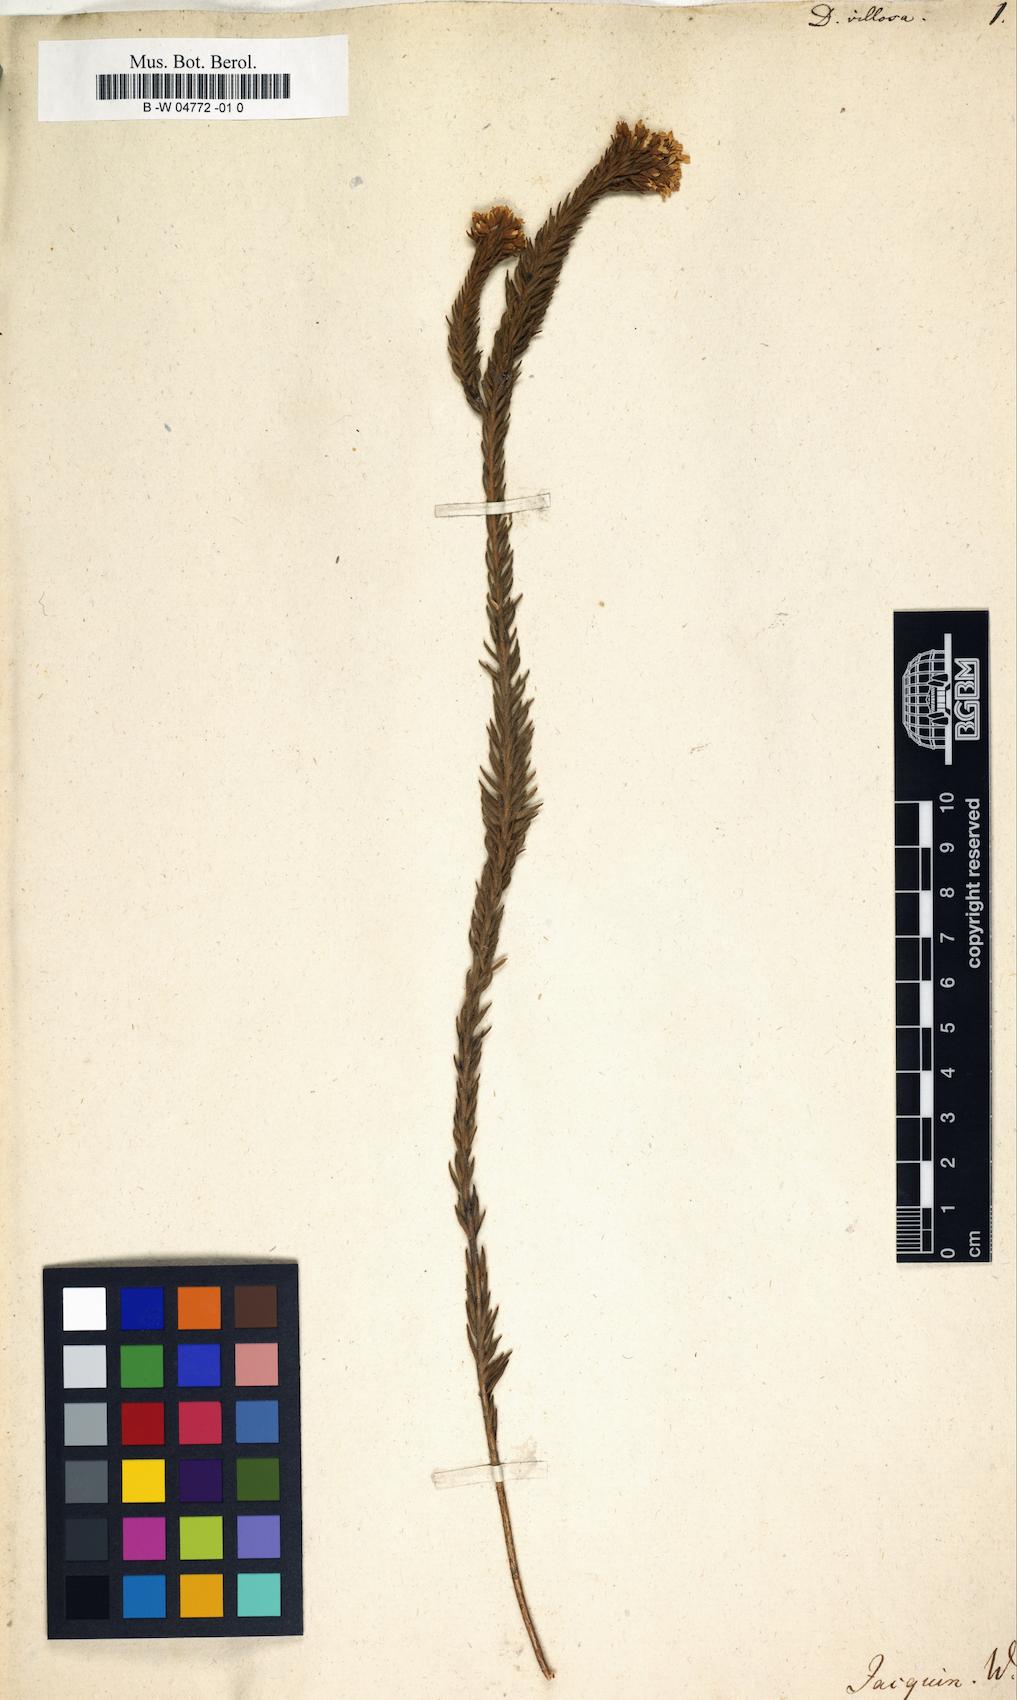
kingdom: Plantae
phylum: Tracheophyta
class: Magnoliopsida
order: Sapindales
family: Rutaceae
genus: Agathosma
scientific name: Agathosma glabrata
